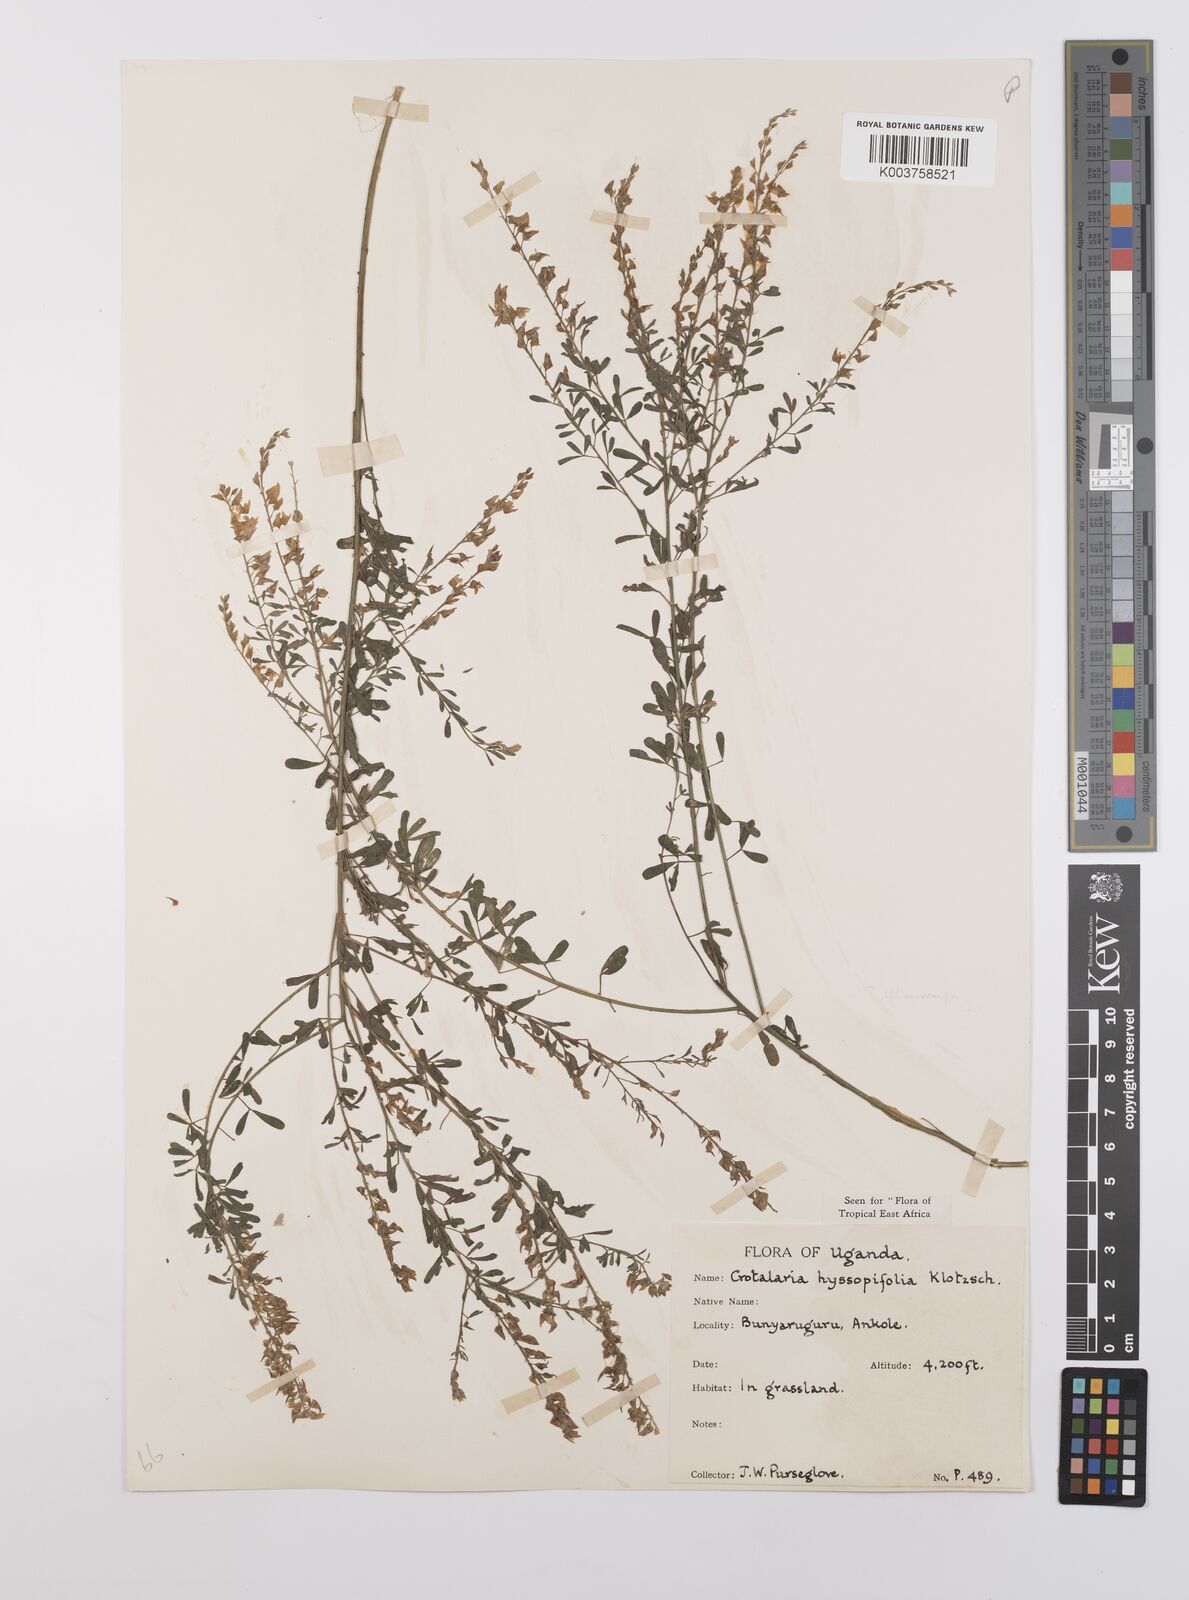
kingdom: Plantae
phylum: Tracheophyta
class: Magnoliopsida
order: Fabales
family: Fabaceae
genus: Crotalaria
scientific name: Crotalaria hyssopifolia
